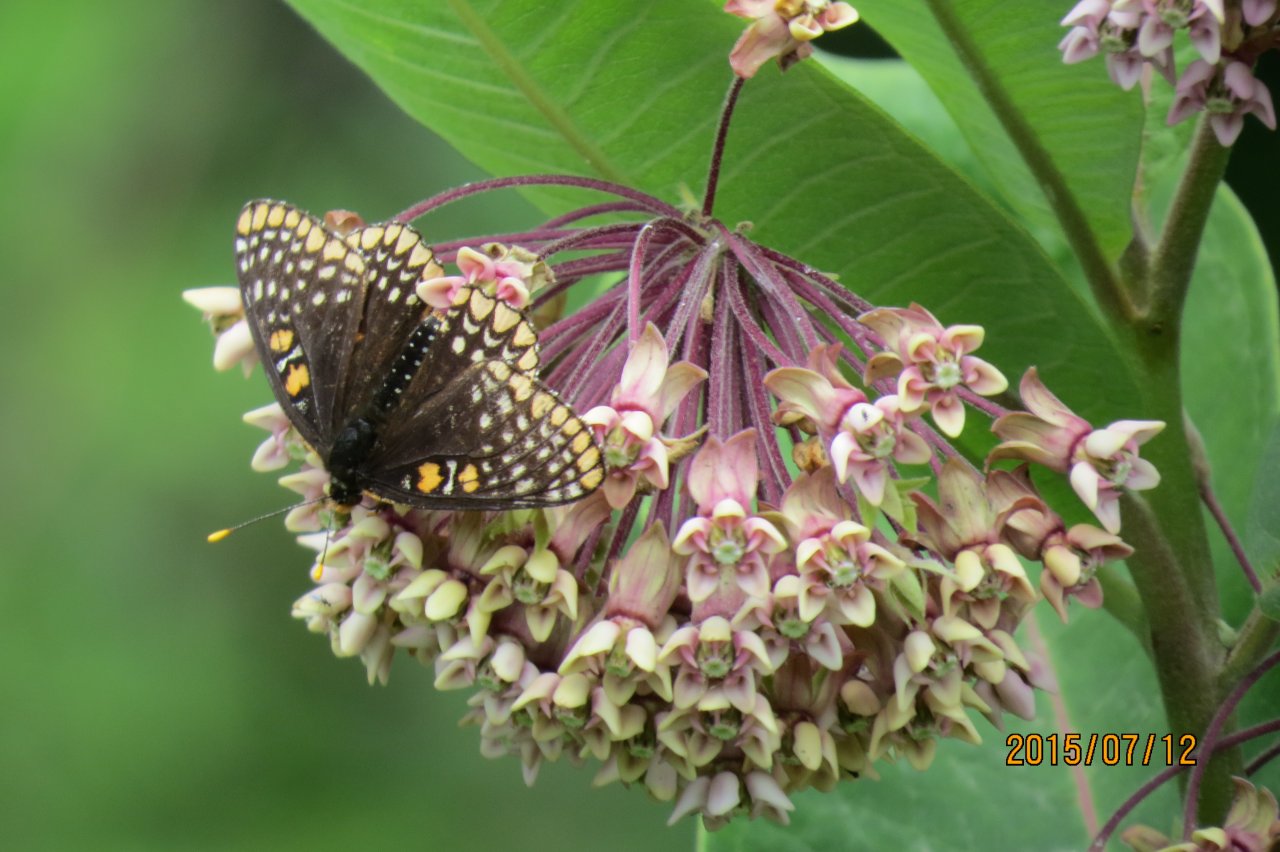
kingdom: Animalia
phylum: Arthropoda
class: Insecta
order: Lepidoptera
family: Nymphalidae
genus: Euphydryas
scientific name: Euphydryas phaeton
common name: Baltimore Checkerspot
